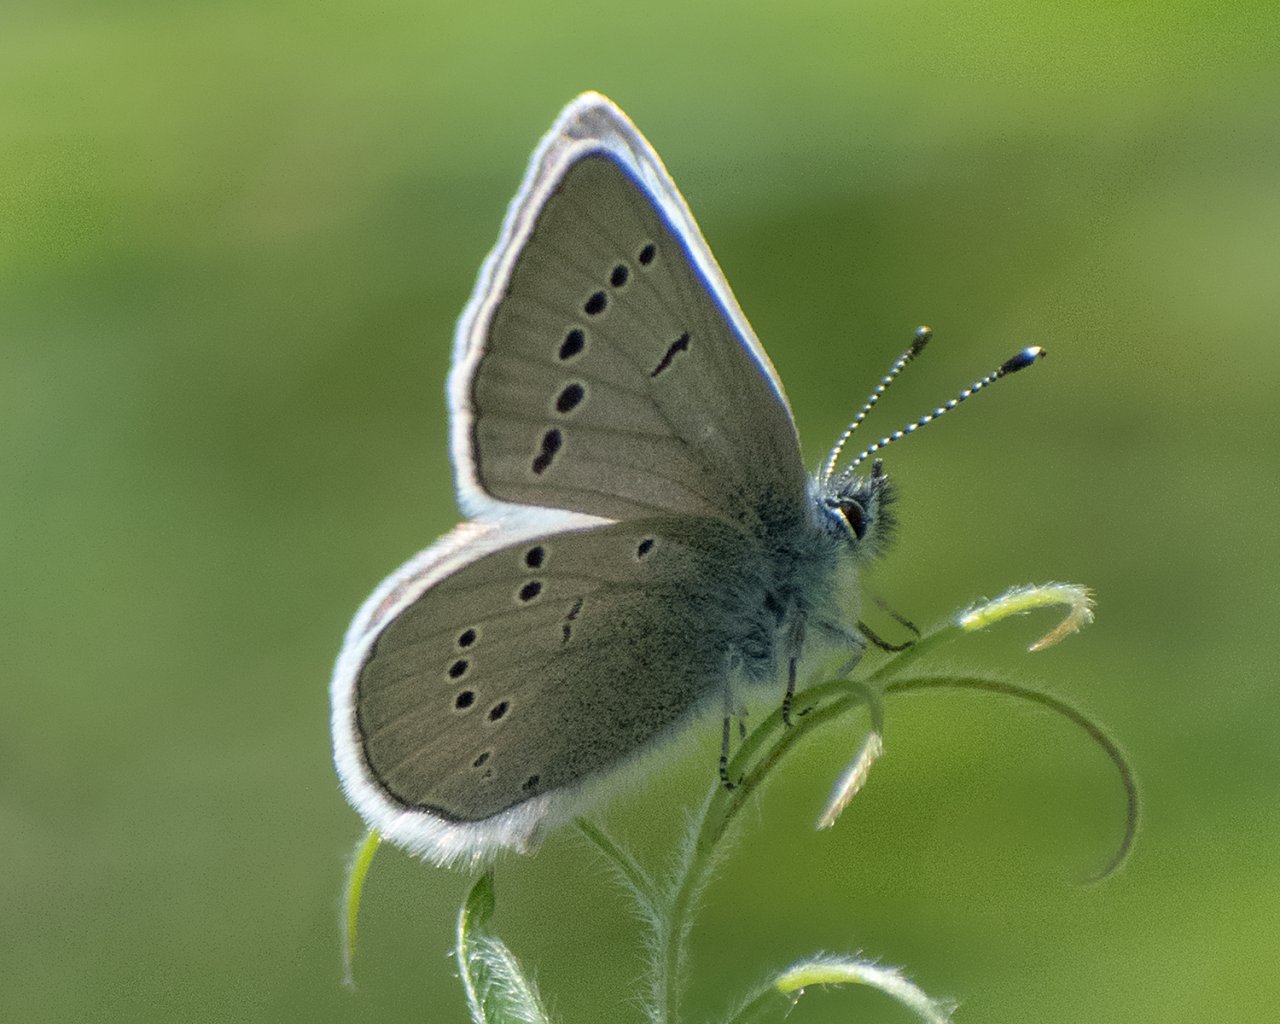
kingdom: Animalia
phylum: Arthropoda
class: Insecta
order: Lepidoptera
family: Lycaenidae
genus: Glaucopsyche
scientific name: Glaucopsyche lygdamus
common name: Silvery Blue
